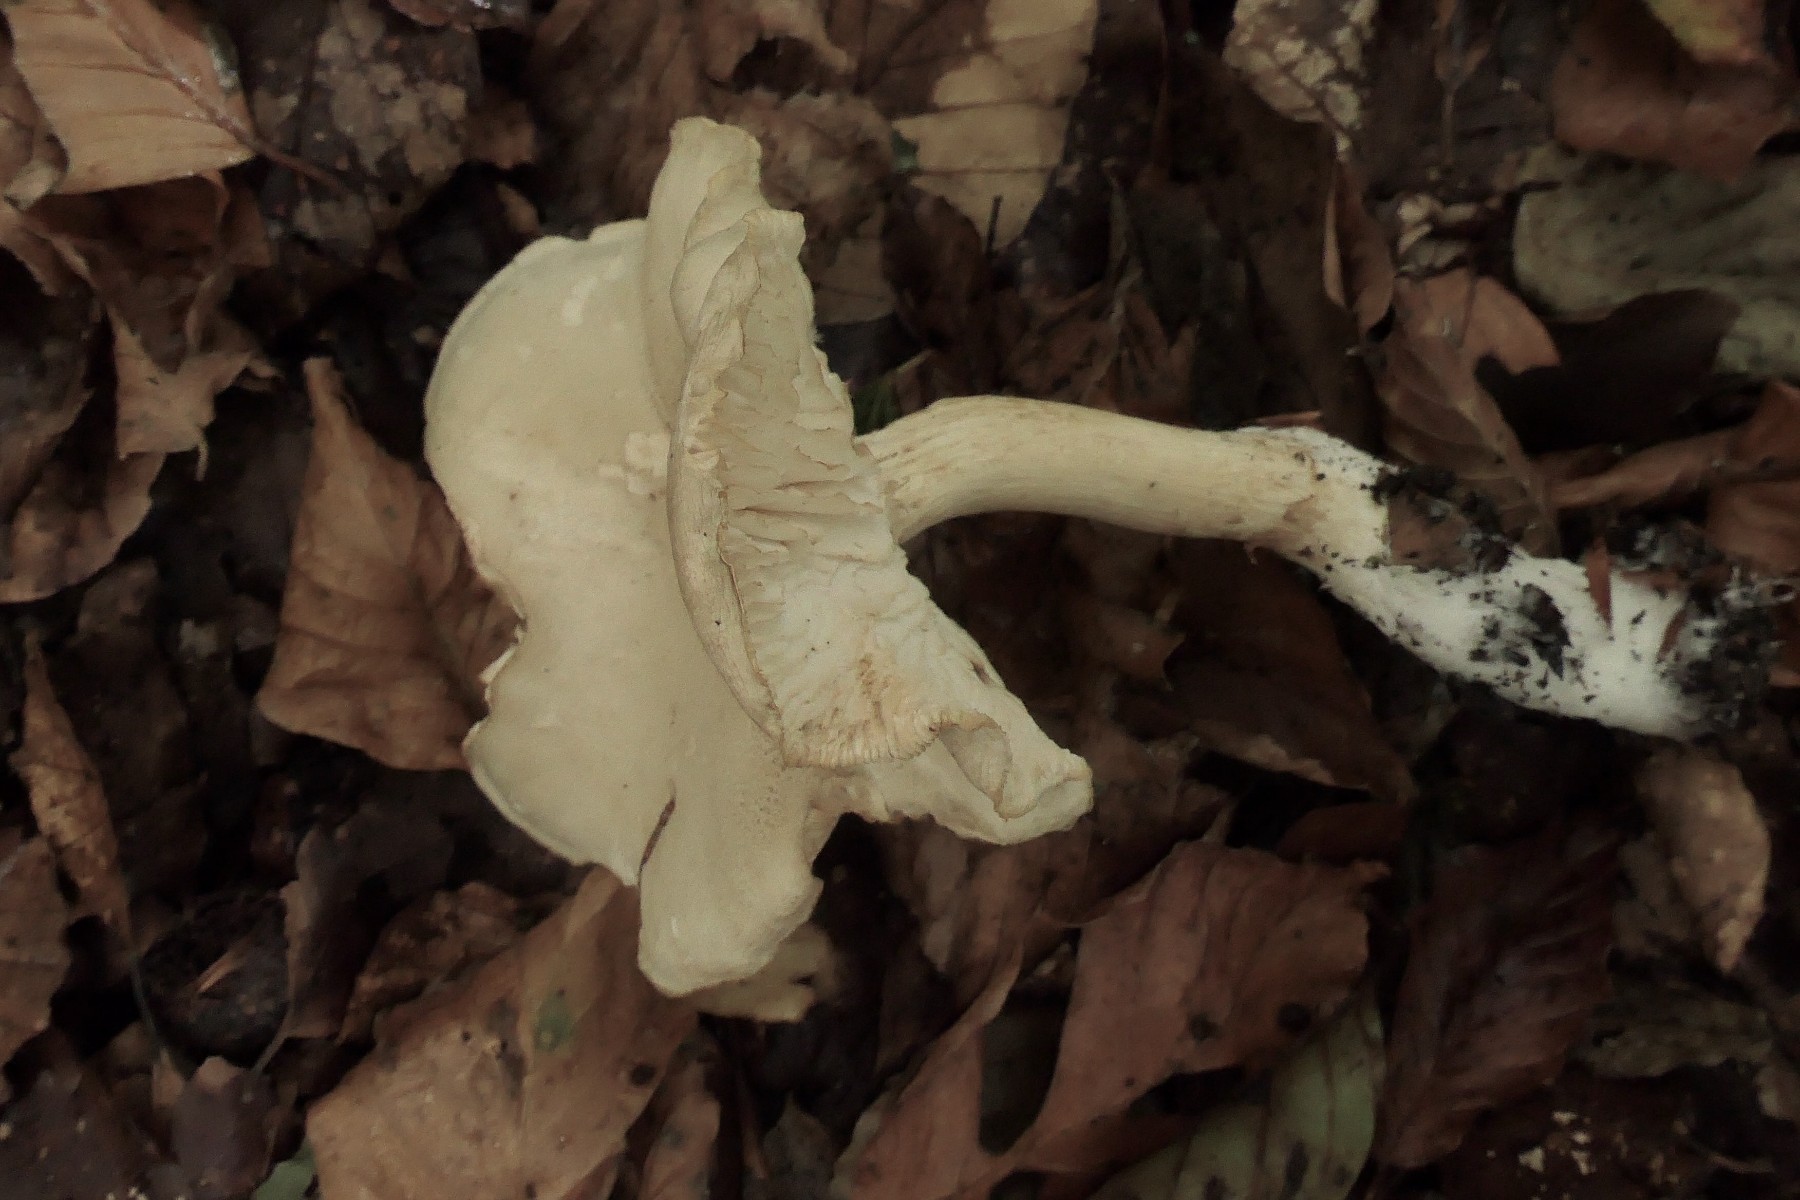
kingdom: Fungi
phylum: Basidiomycota
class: Agaricomycetes
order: Agaricales
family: Tricholomataceae
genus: Tricholoma
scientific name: Tricholoma lascivum
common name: stinkende ridderhat
